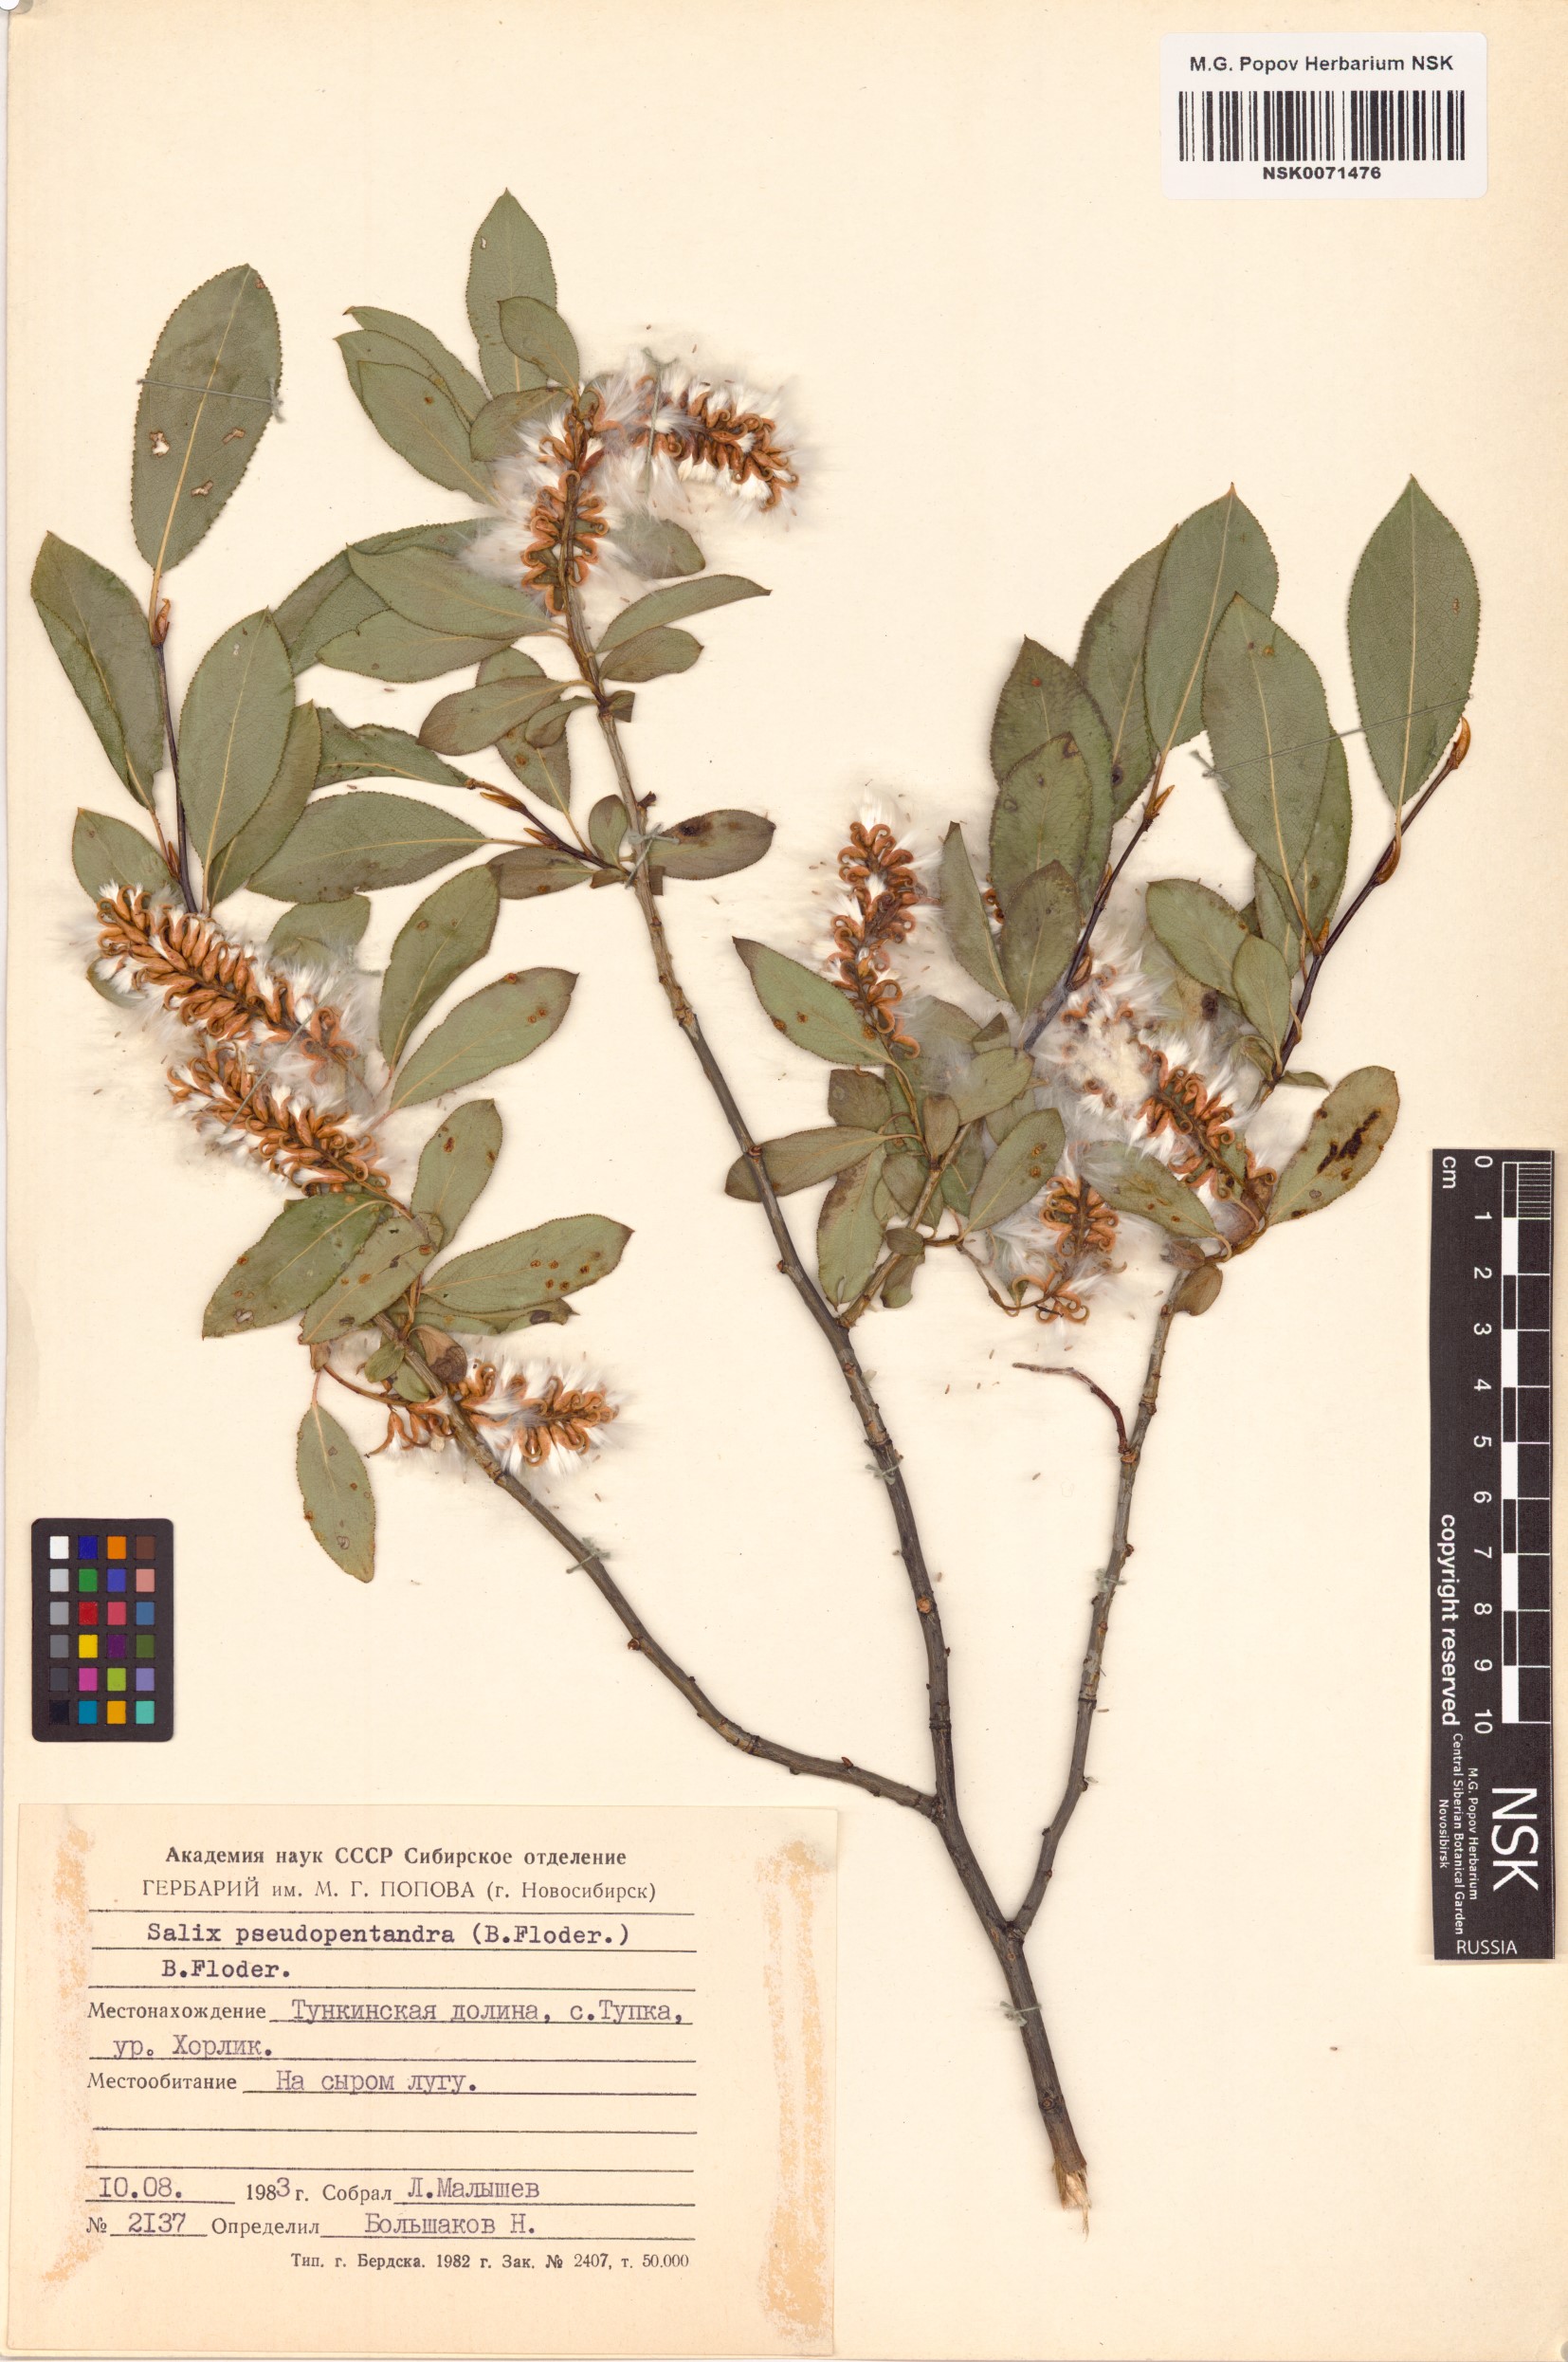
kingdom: Plantae
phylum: Tracheophyta
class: Magnoliopsida
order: Malpighiales
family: Salicaceae
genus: Salix
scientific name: Salix pseudopentandra
